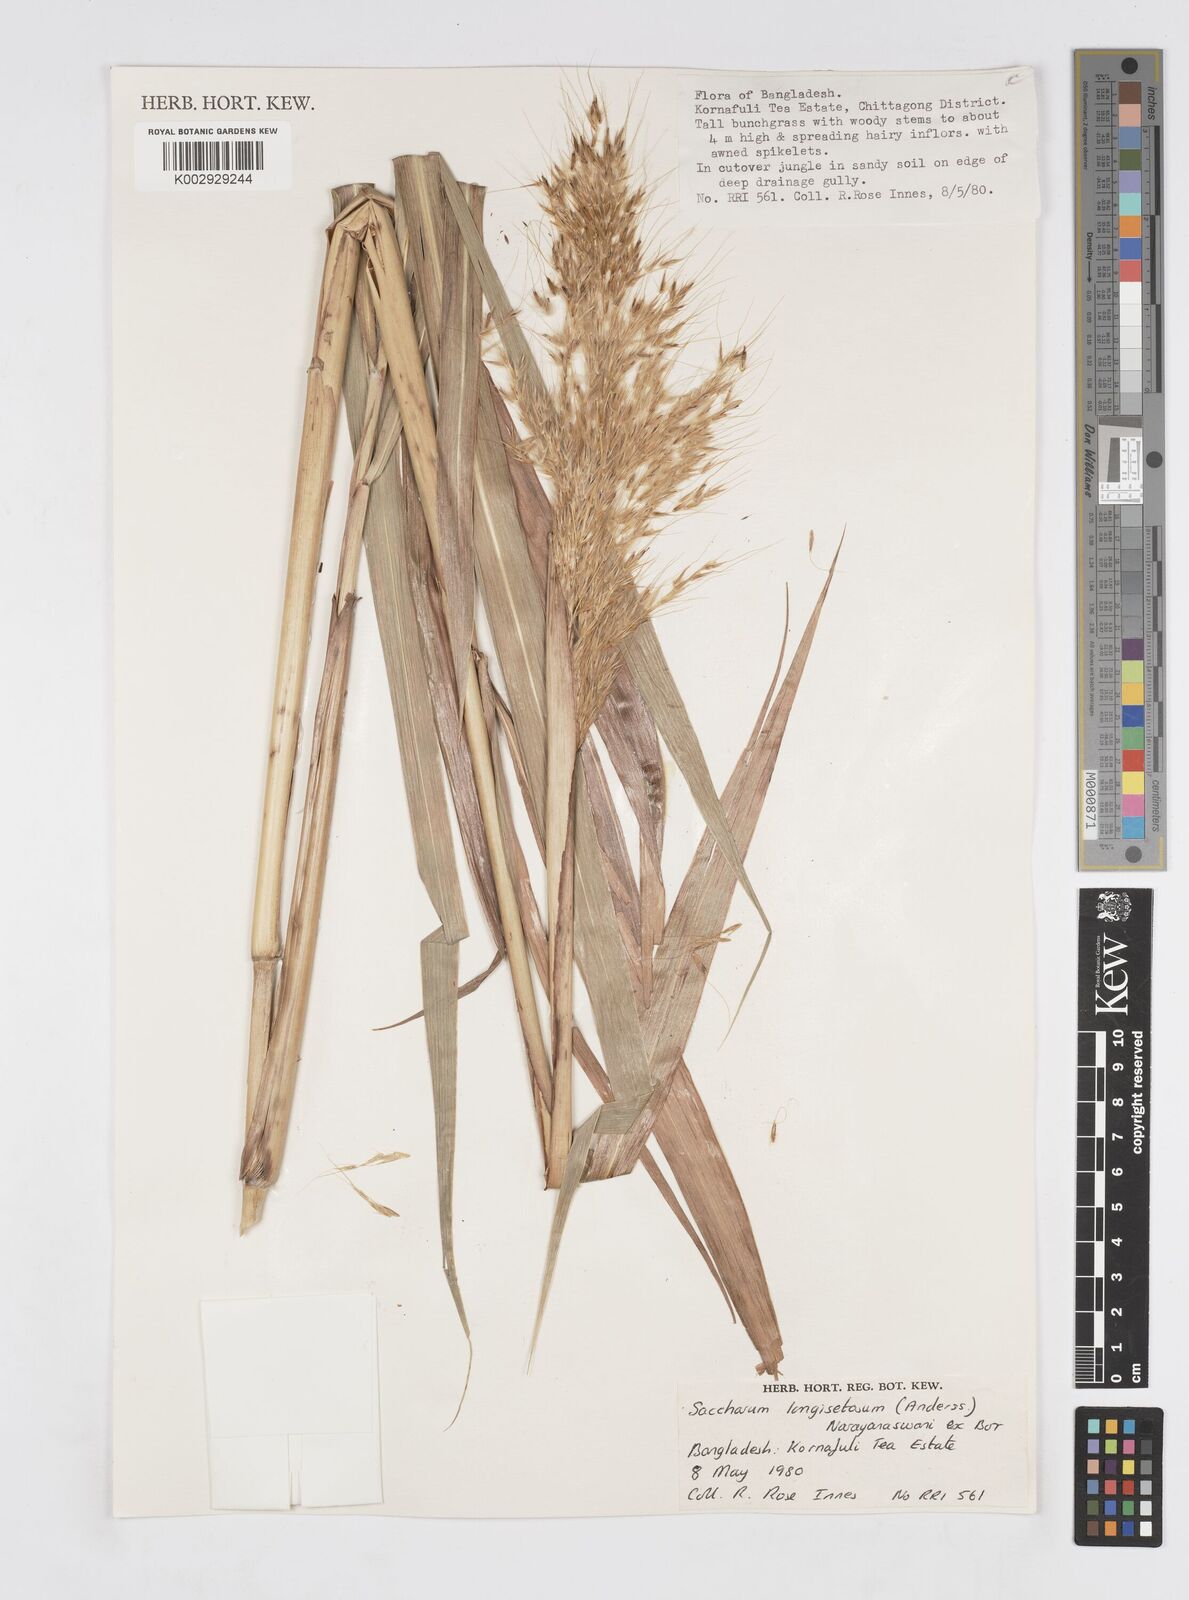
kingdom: Plantae
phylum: Tracheophyta
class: Liliopsida
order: Poales
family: Poaceae
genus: Saccharum
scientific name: Saccharum longesetosum
